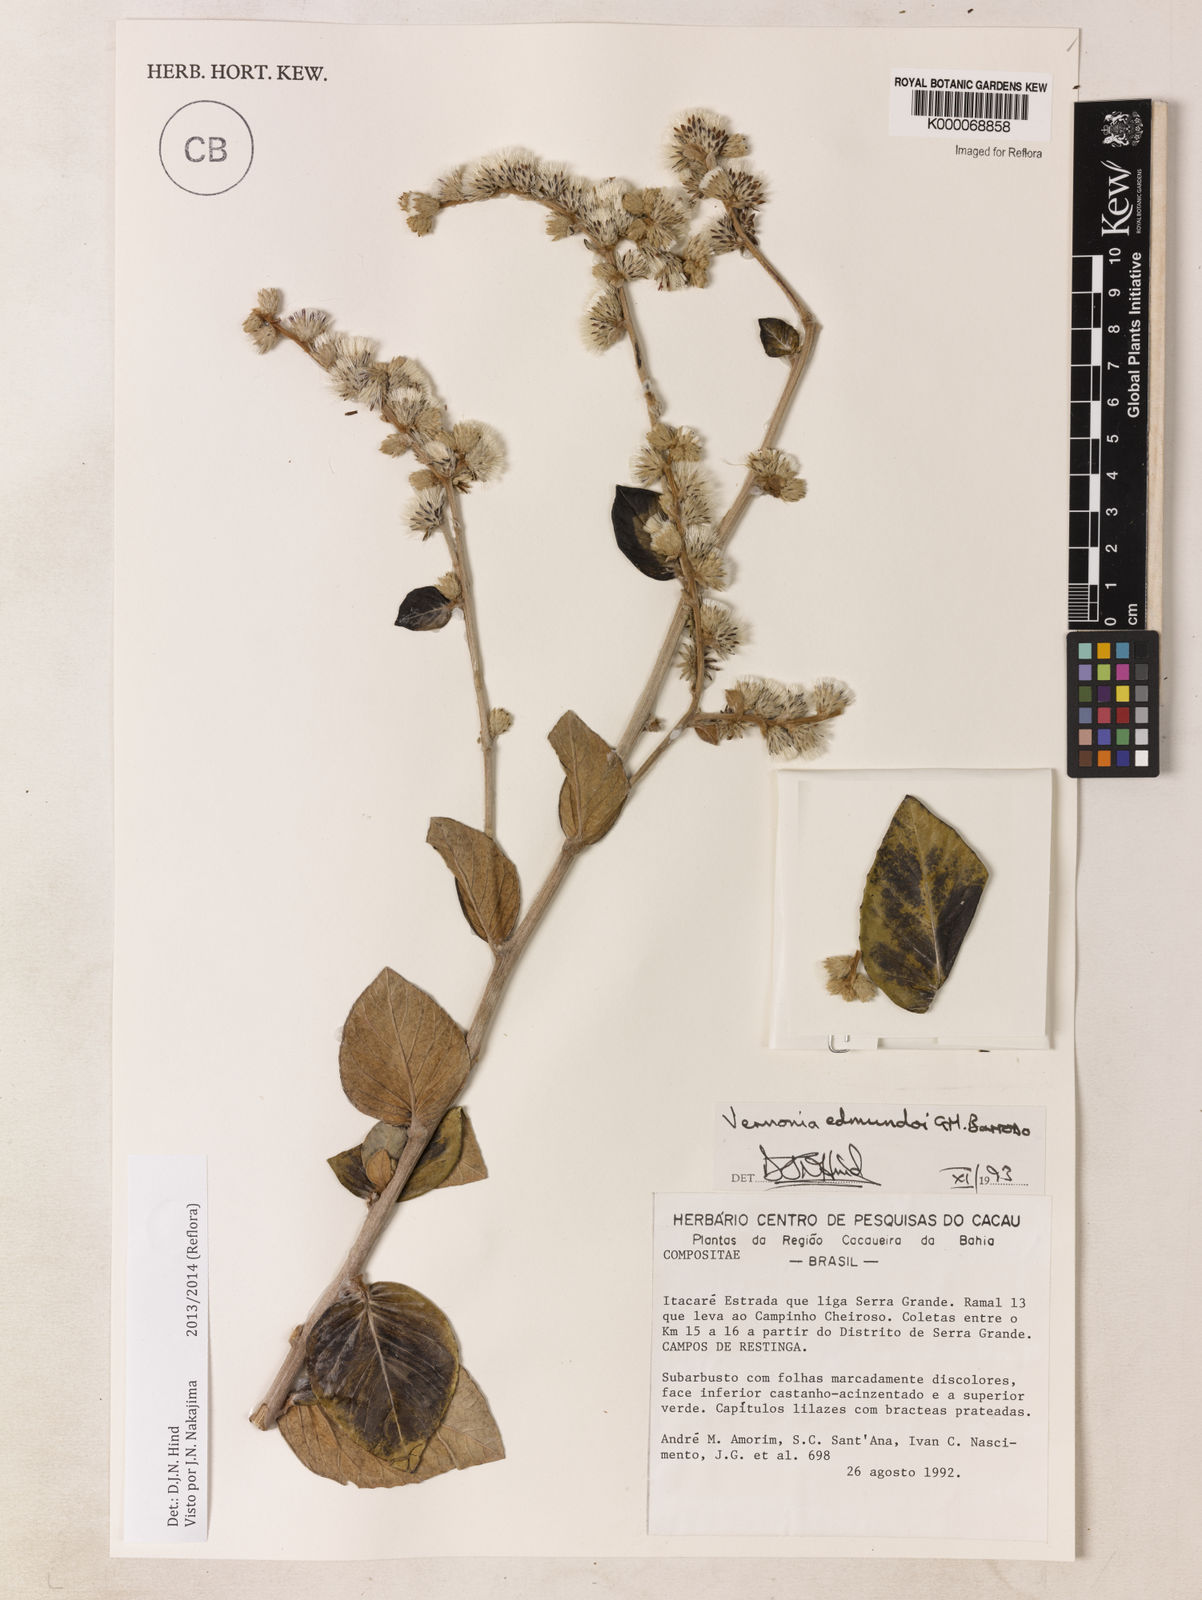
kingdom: Plantae
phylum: Tracheophyta
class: Magnoliopsida
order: Asterales
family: Asteraceae
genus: Lepidaploa
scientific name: Lepidaploa edmundoi
